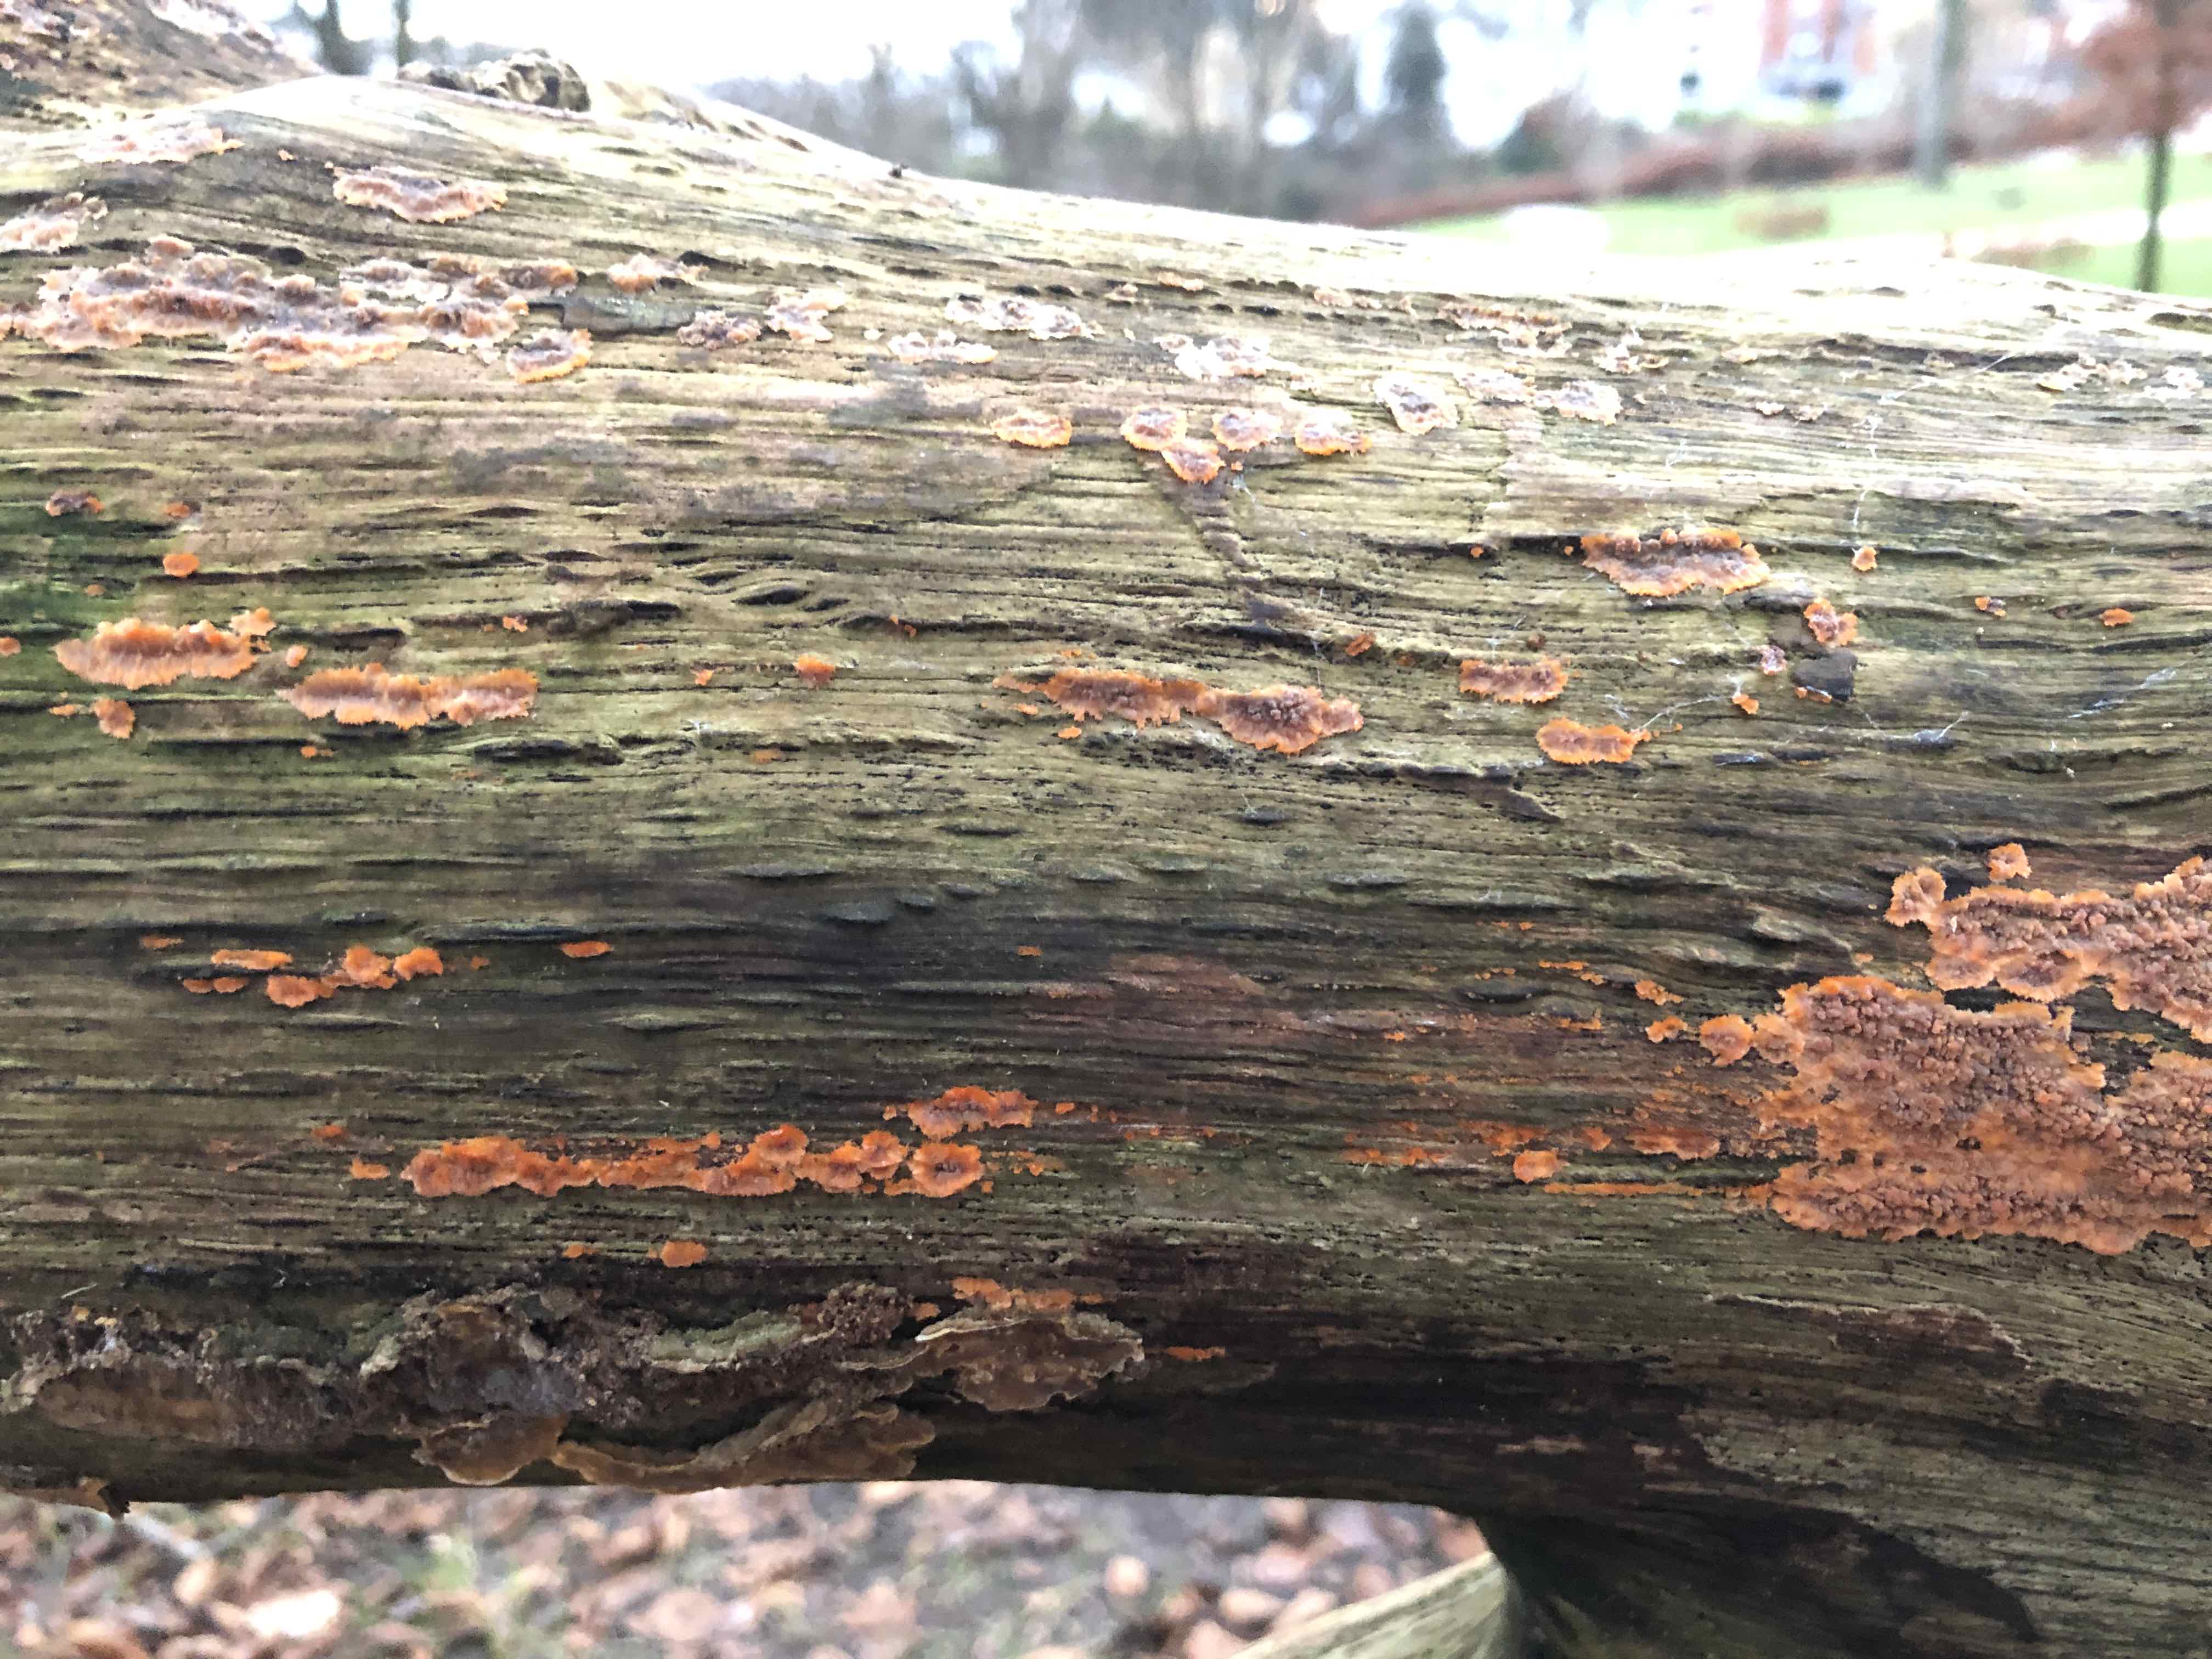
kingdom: Fungi
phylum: Basidiomycota
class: Agaricomycetes
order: Polyporales
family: Meruliaceae
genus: Phlebia
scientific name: Phlebia radiata
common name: stråle-åresvamp
